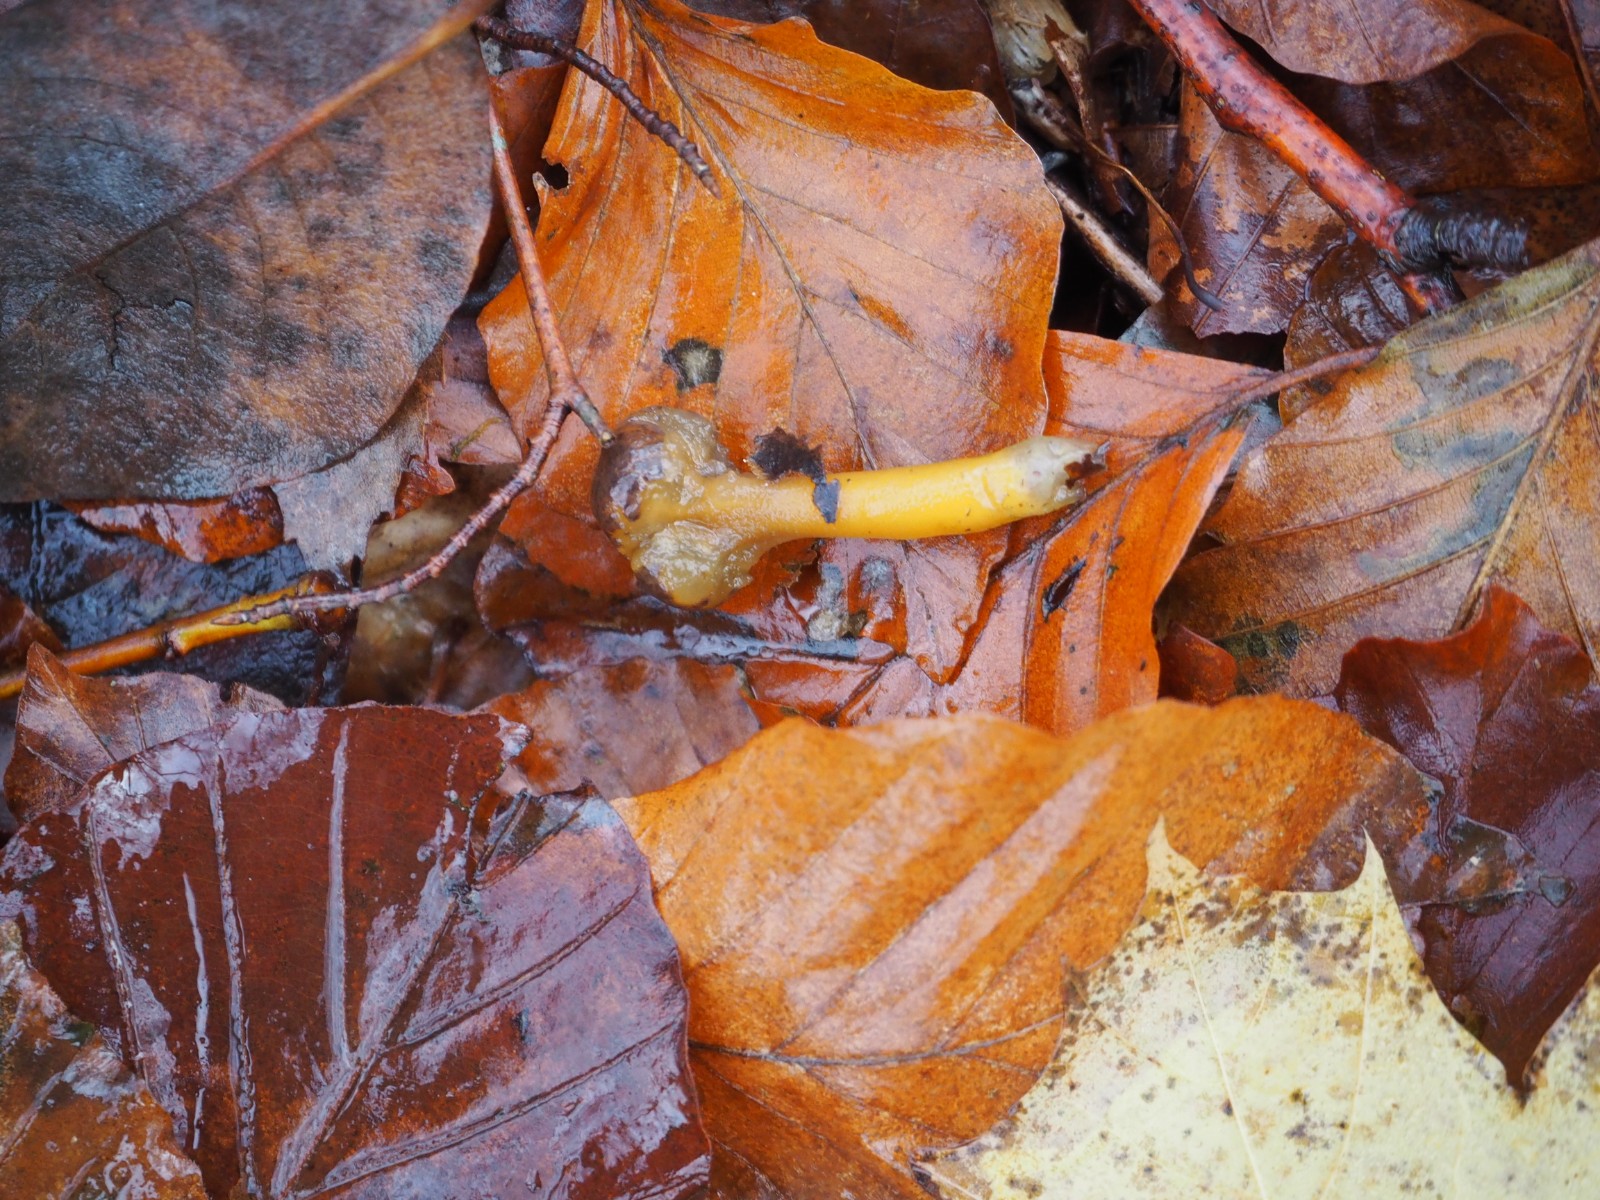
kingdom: Fungi
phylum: Ascomycota
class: Leotiomycetes
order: Leotiales
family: Leotiaceae
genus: Leotia
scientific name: Leotia lubrica
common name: ravsvamp
